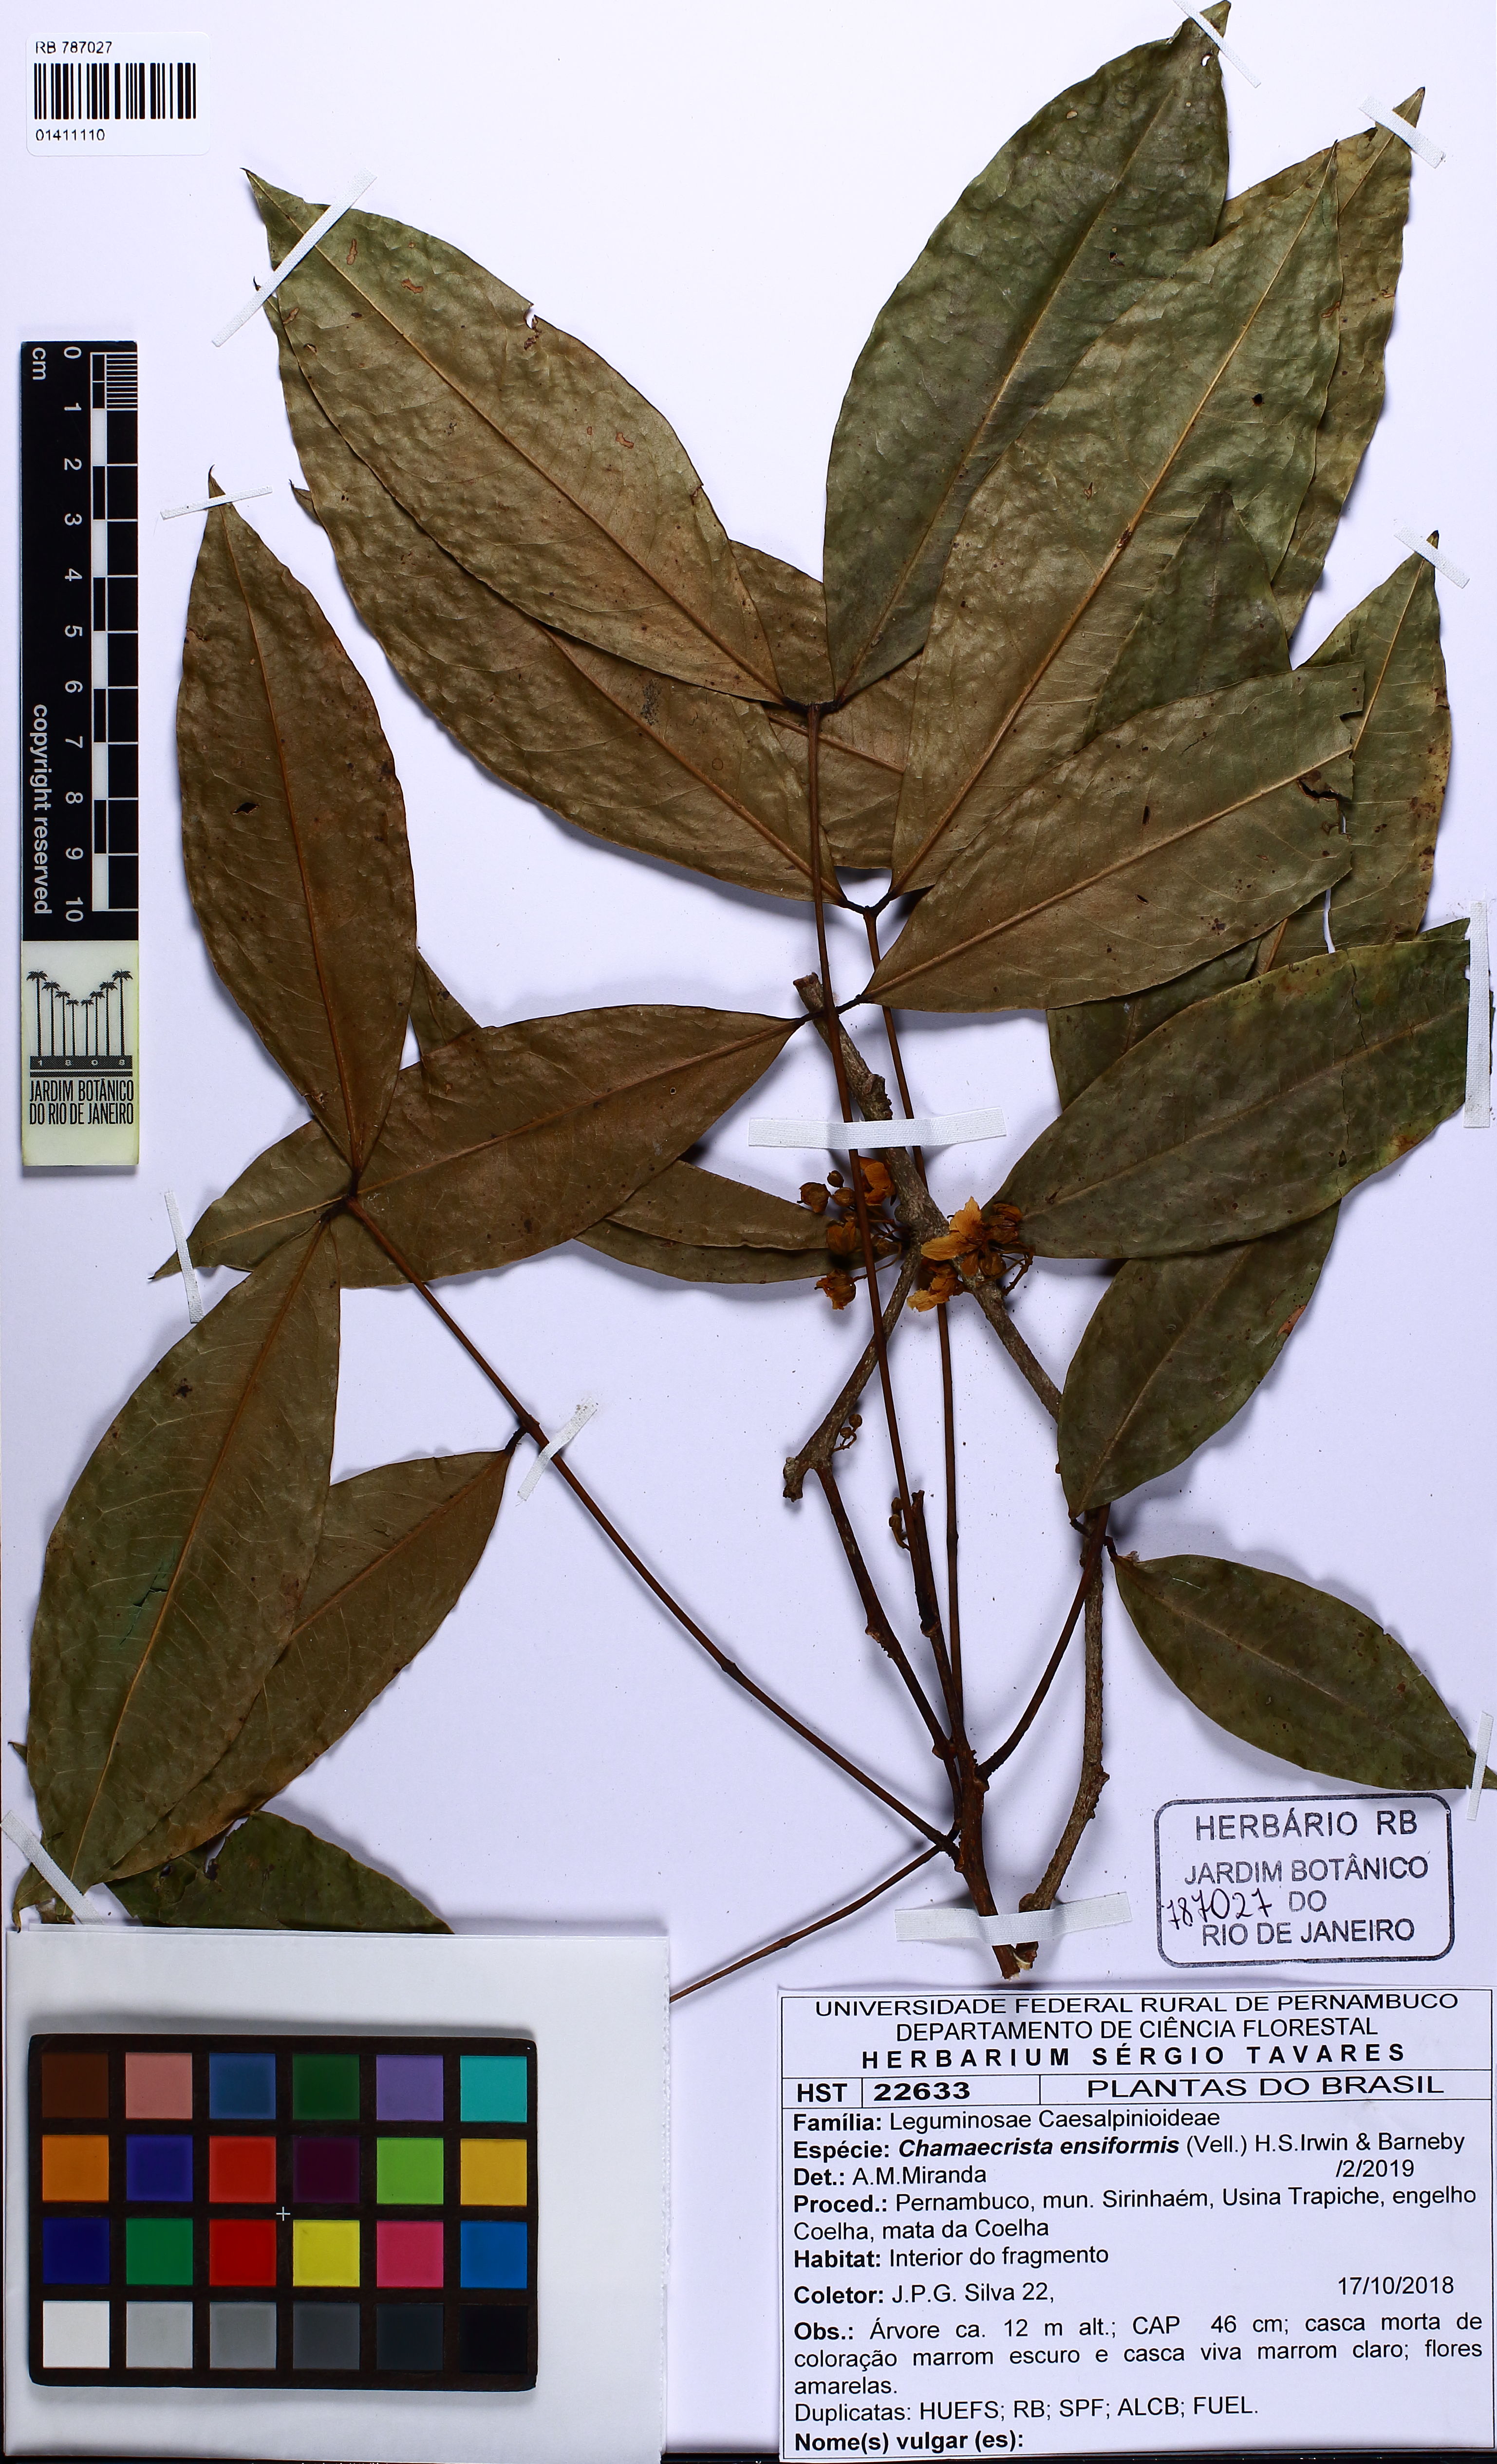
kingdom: Plantae
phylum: Tracheophyta
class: Magnoliopsida
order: Fabales
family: Fabaceae
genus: Chamaecrista
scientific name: Chamaecrista ensiformis
